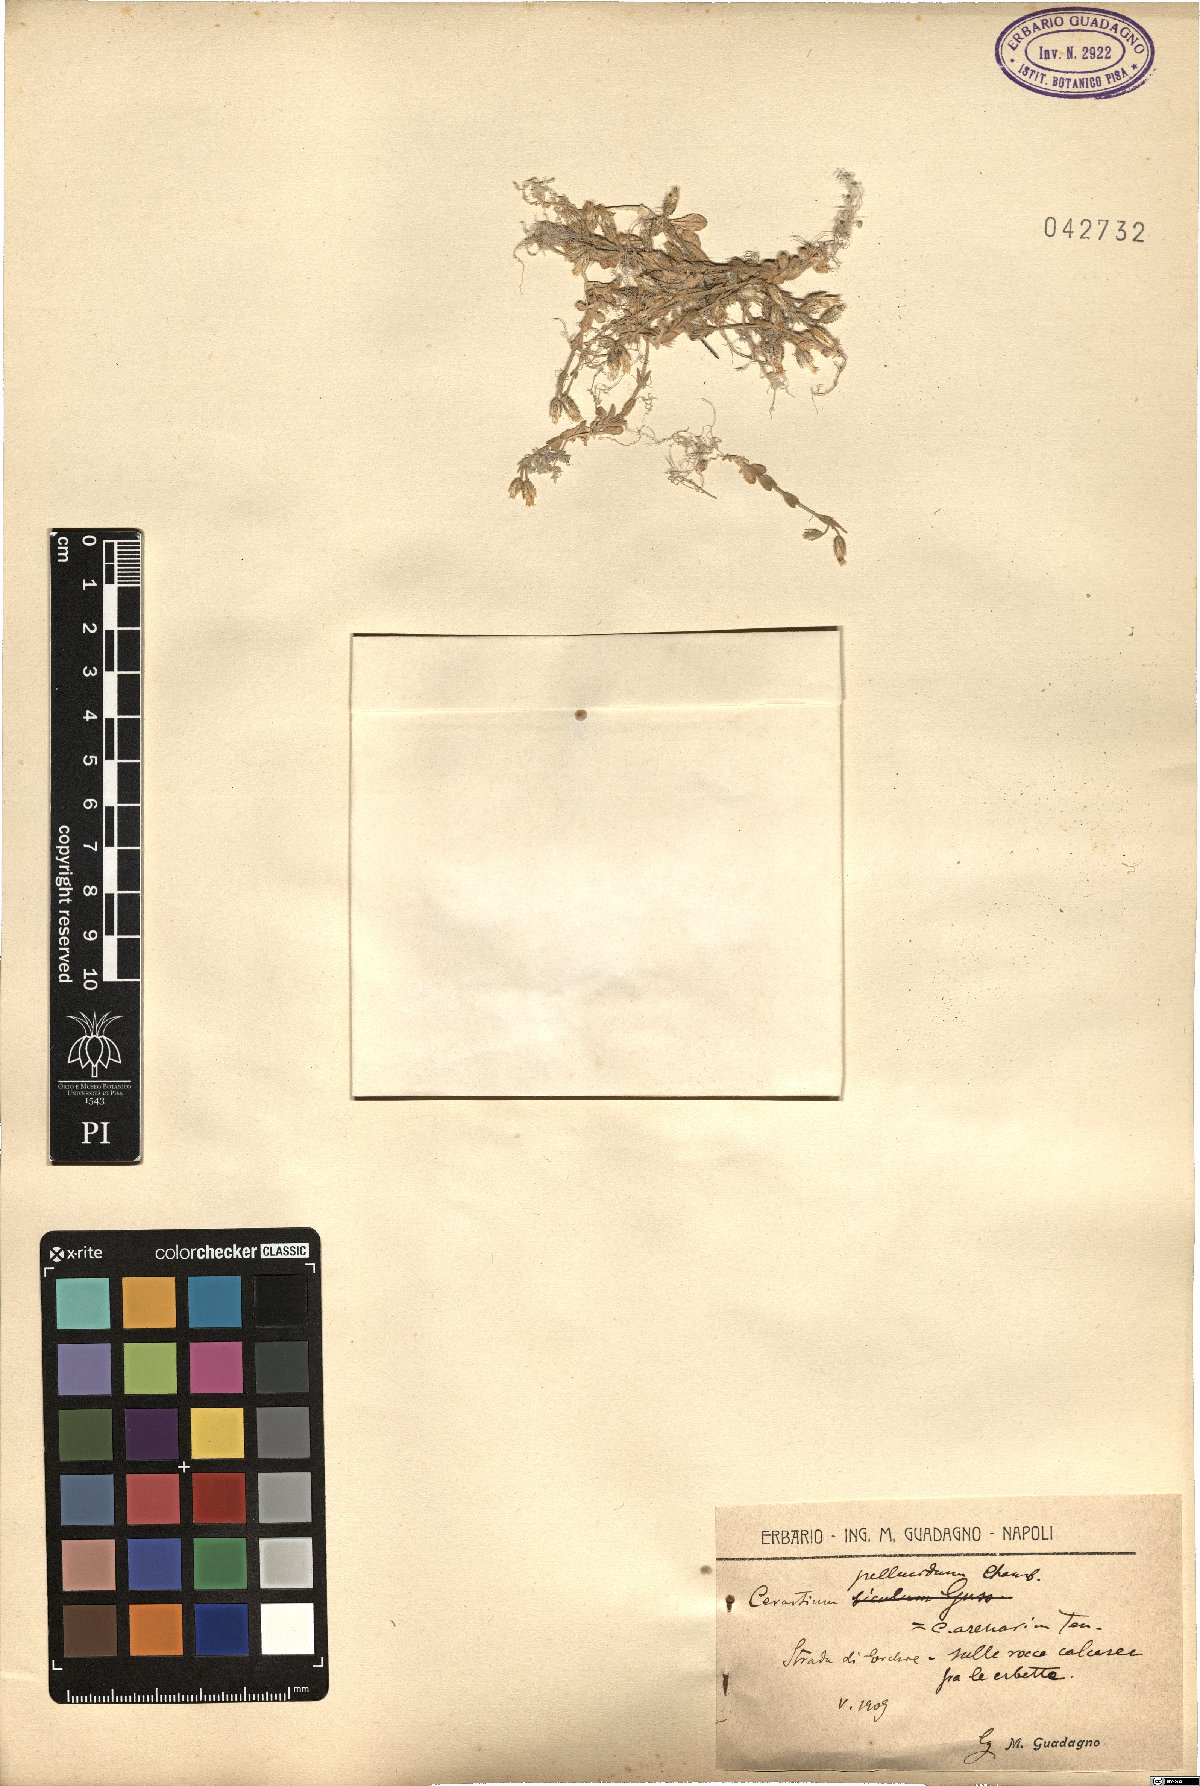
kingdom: Plantae
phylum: Tracheophyta
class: Magnoliopsida
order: Caryophyllales
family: Caryophyllaceae
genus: Cerastium
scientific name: Cerastium semidecandrum
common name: Little mouse-ear
